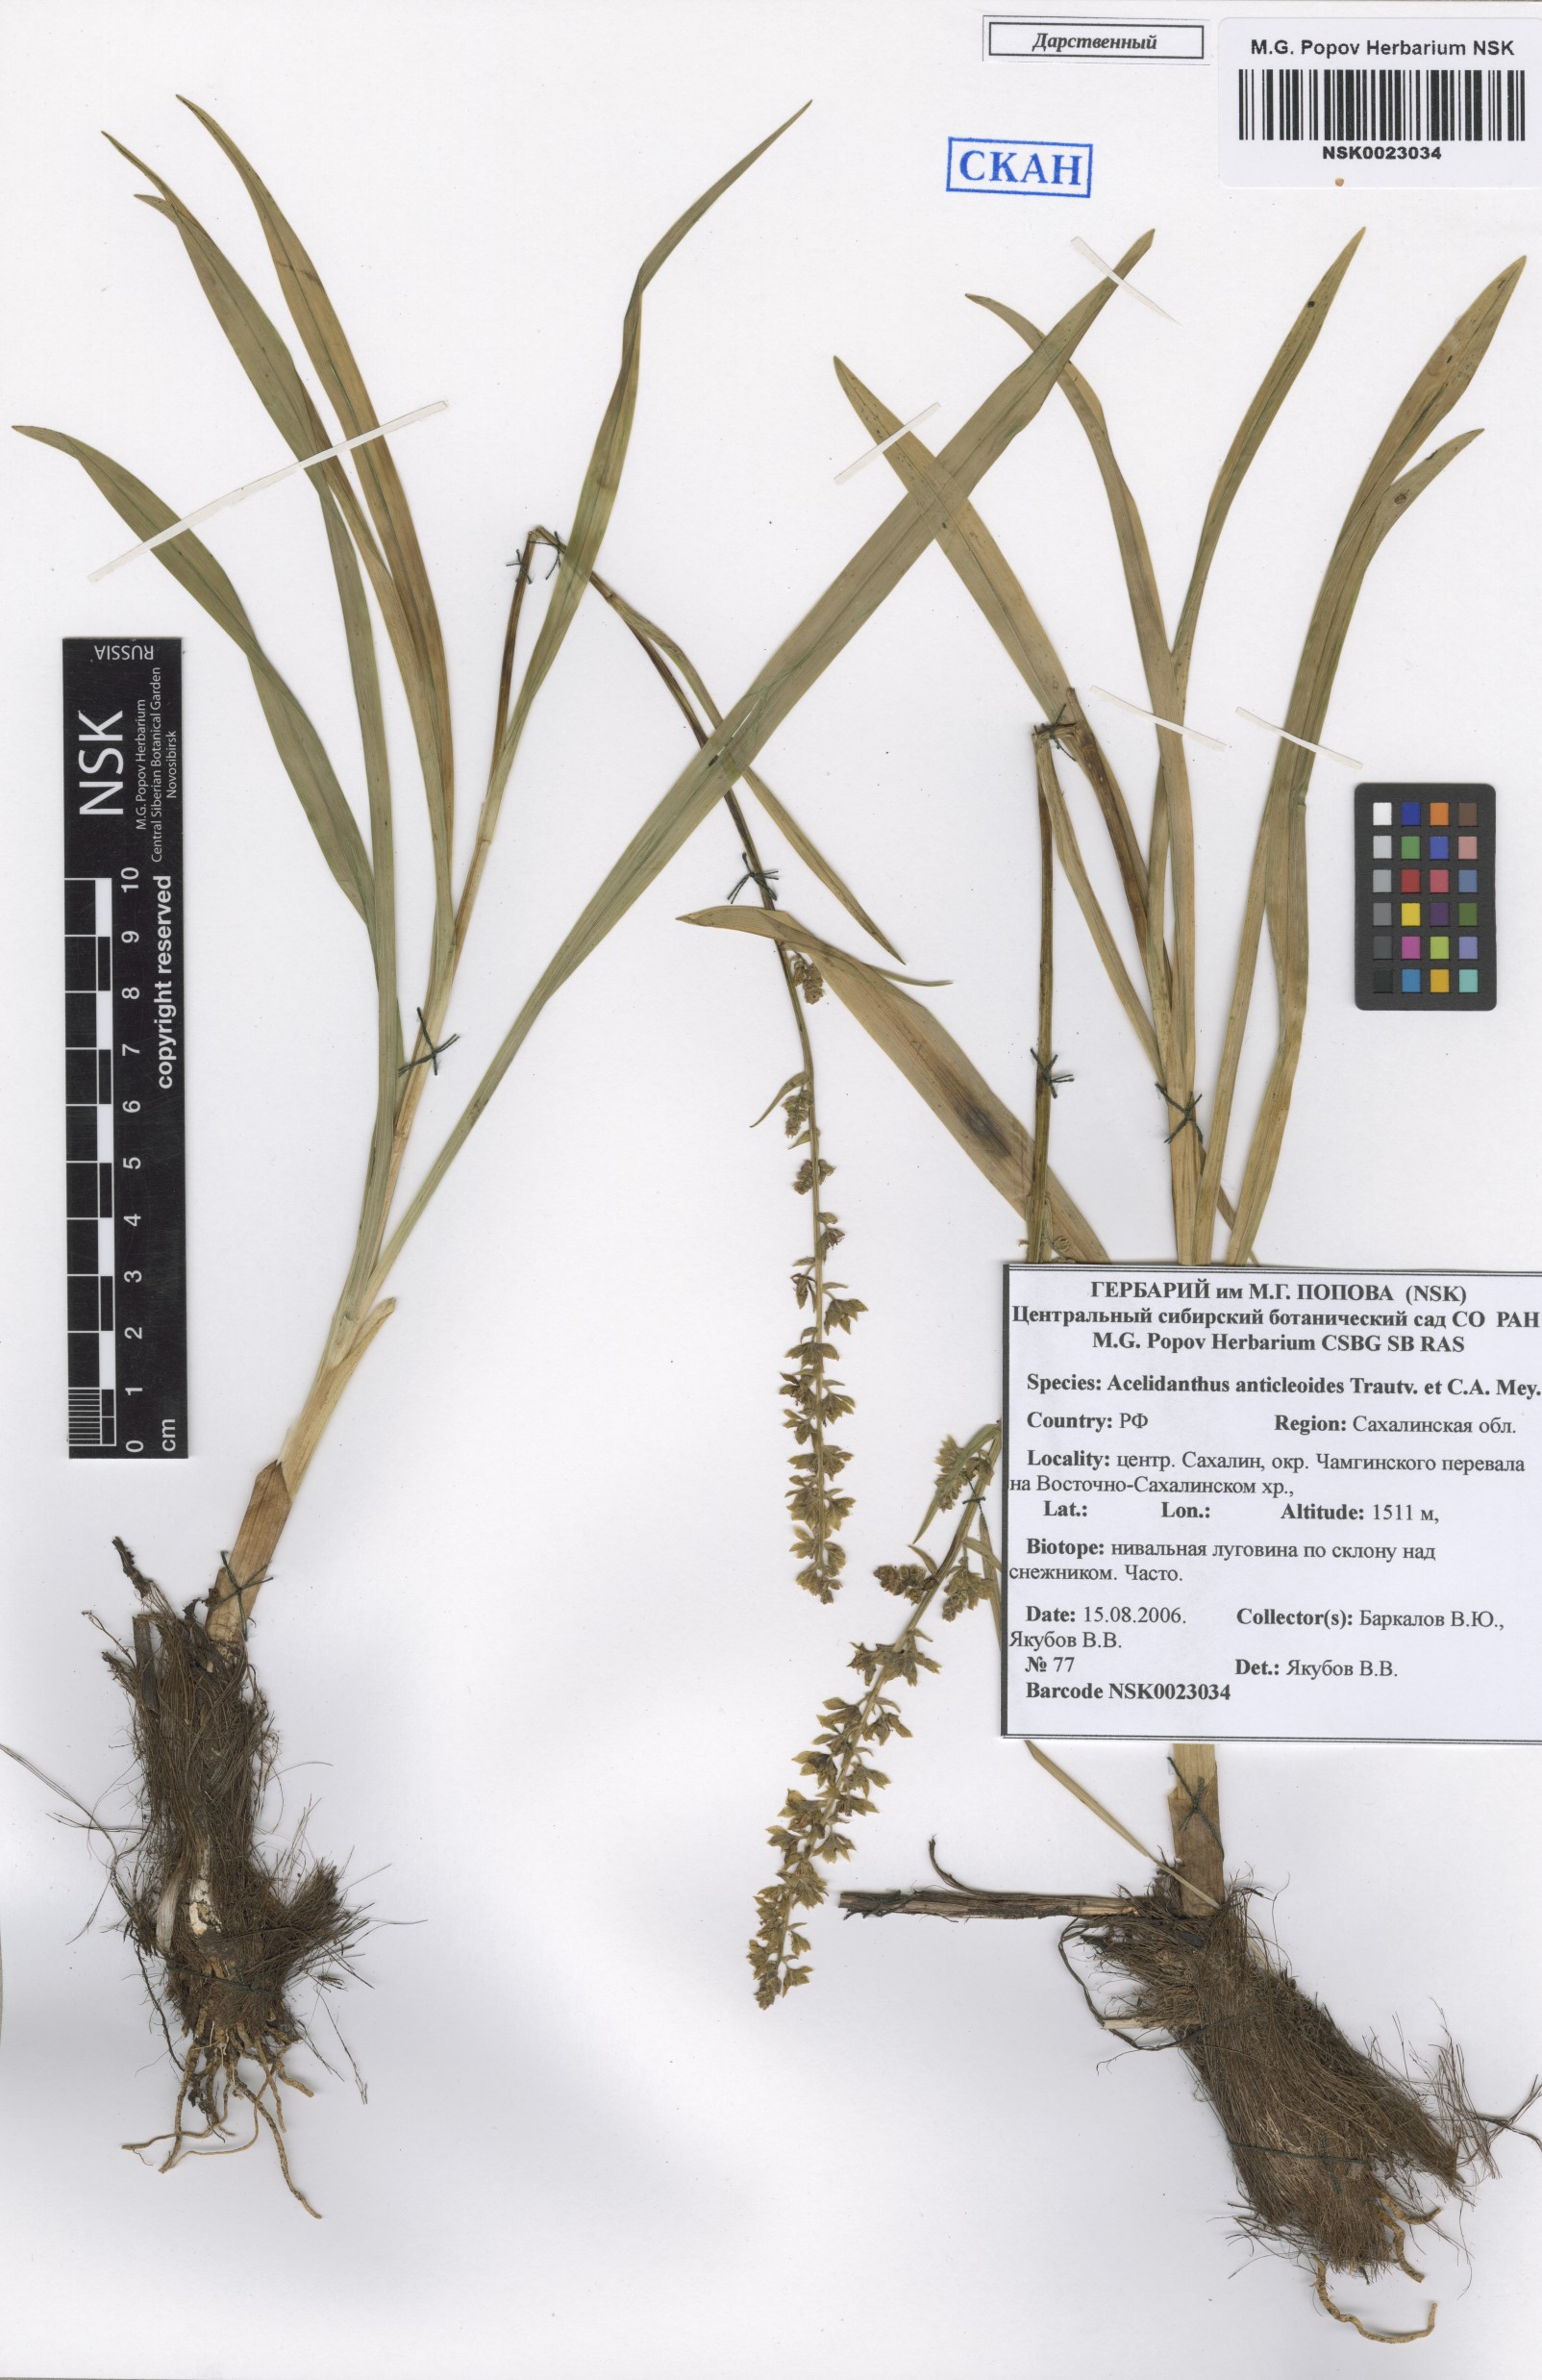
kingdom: Plantae
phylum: Tracheophyta
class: Liliopsida
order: Liliales
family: Melanthiaceae
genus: Veratrum
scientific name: Veratrum anticleoides
